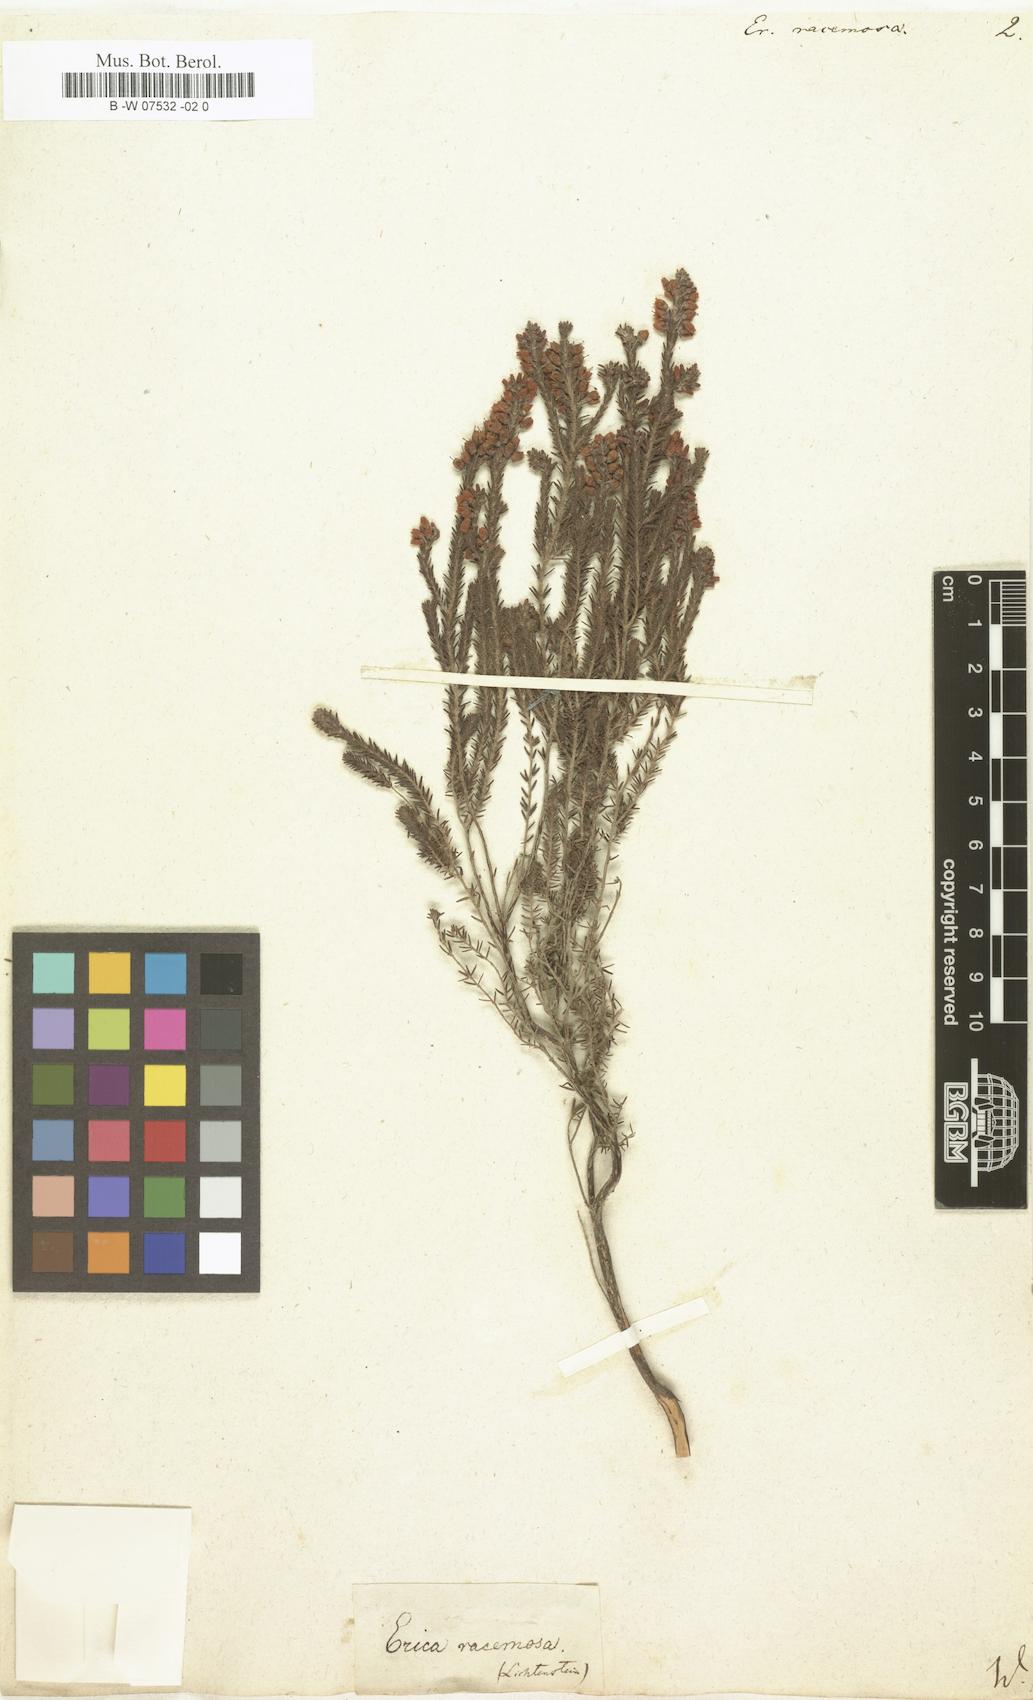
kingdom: Plantae
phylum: Tracheophyta
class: Magnoliopsida
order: Ericales
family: Ericaceae
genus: Erica
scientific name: Erica racemosa
